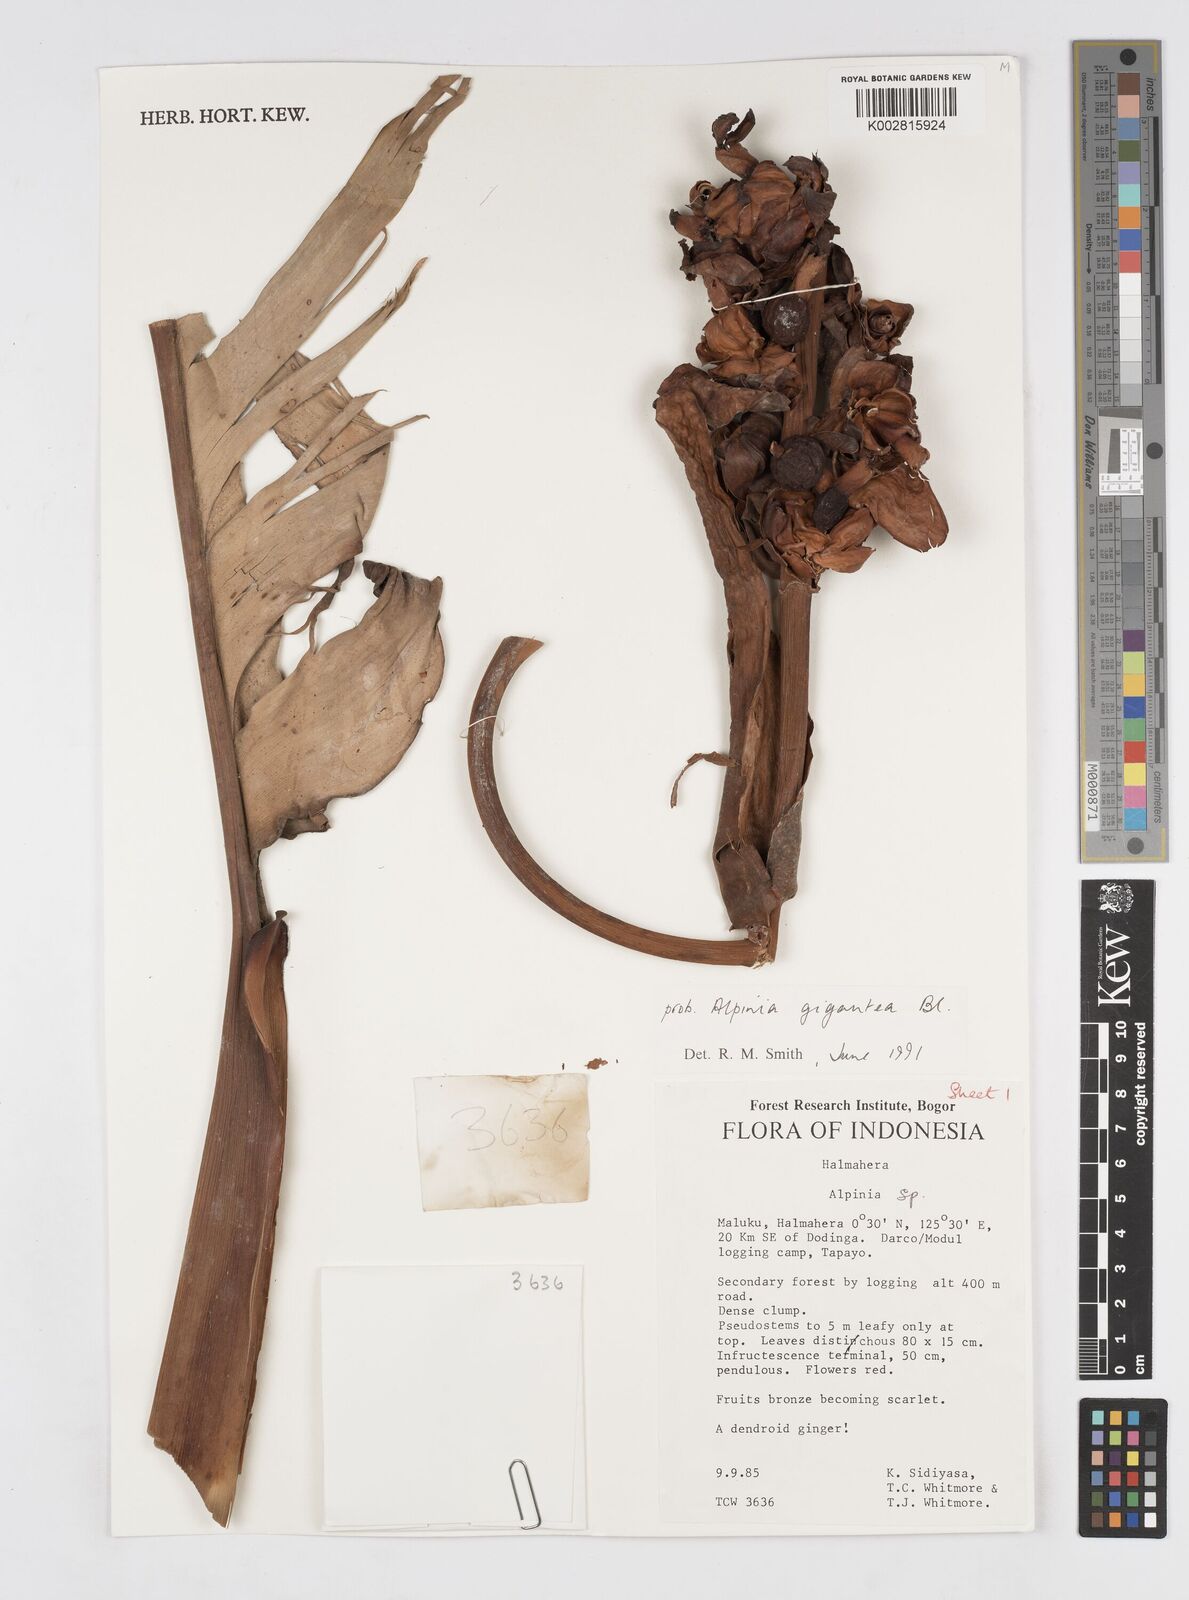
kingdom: Plantae
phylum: Tracheophyta
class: Liliopsida
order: Zingiberales
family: Zingiberaceae
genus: Alpinia
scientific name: Alpinia gigantea
